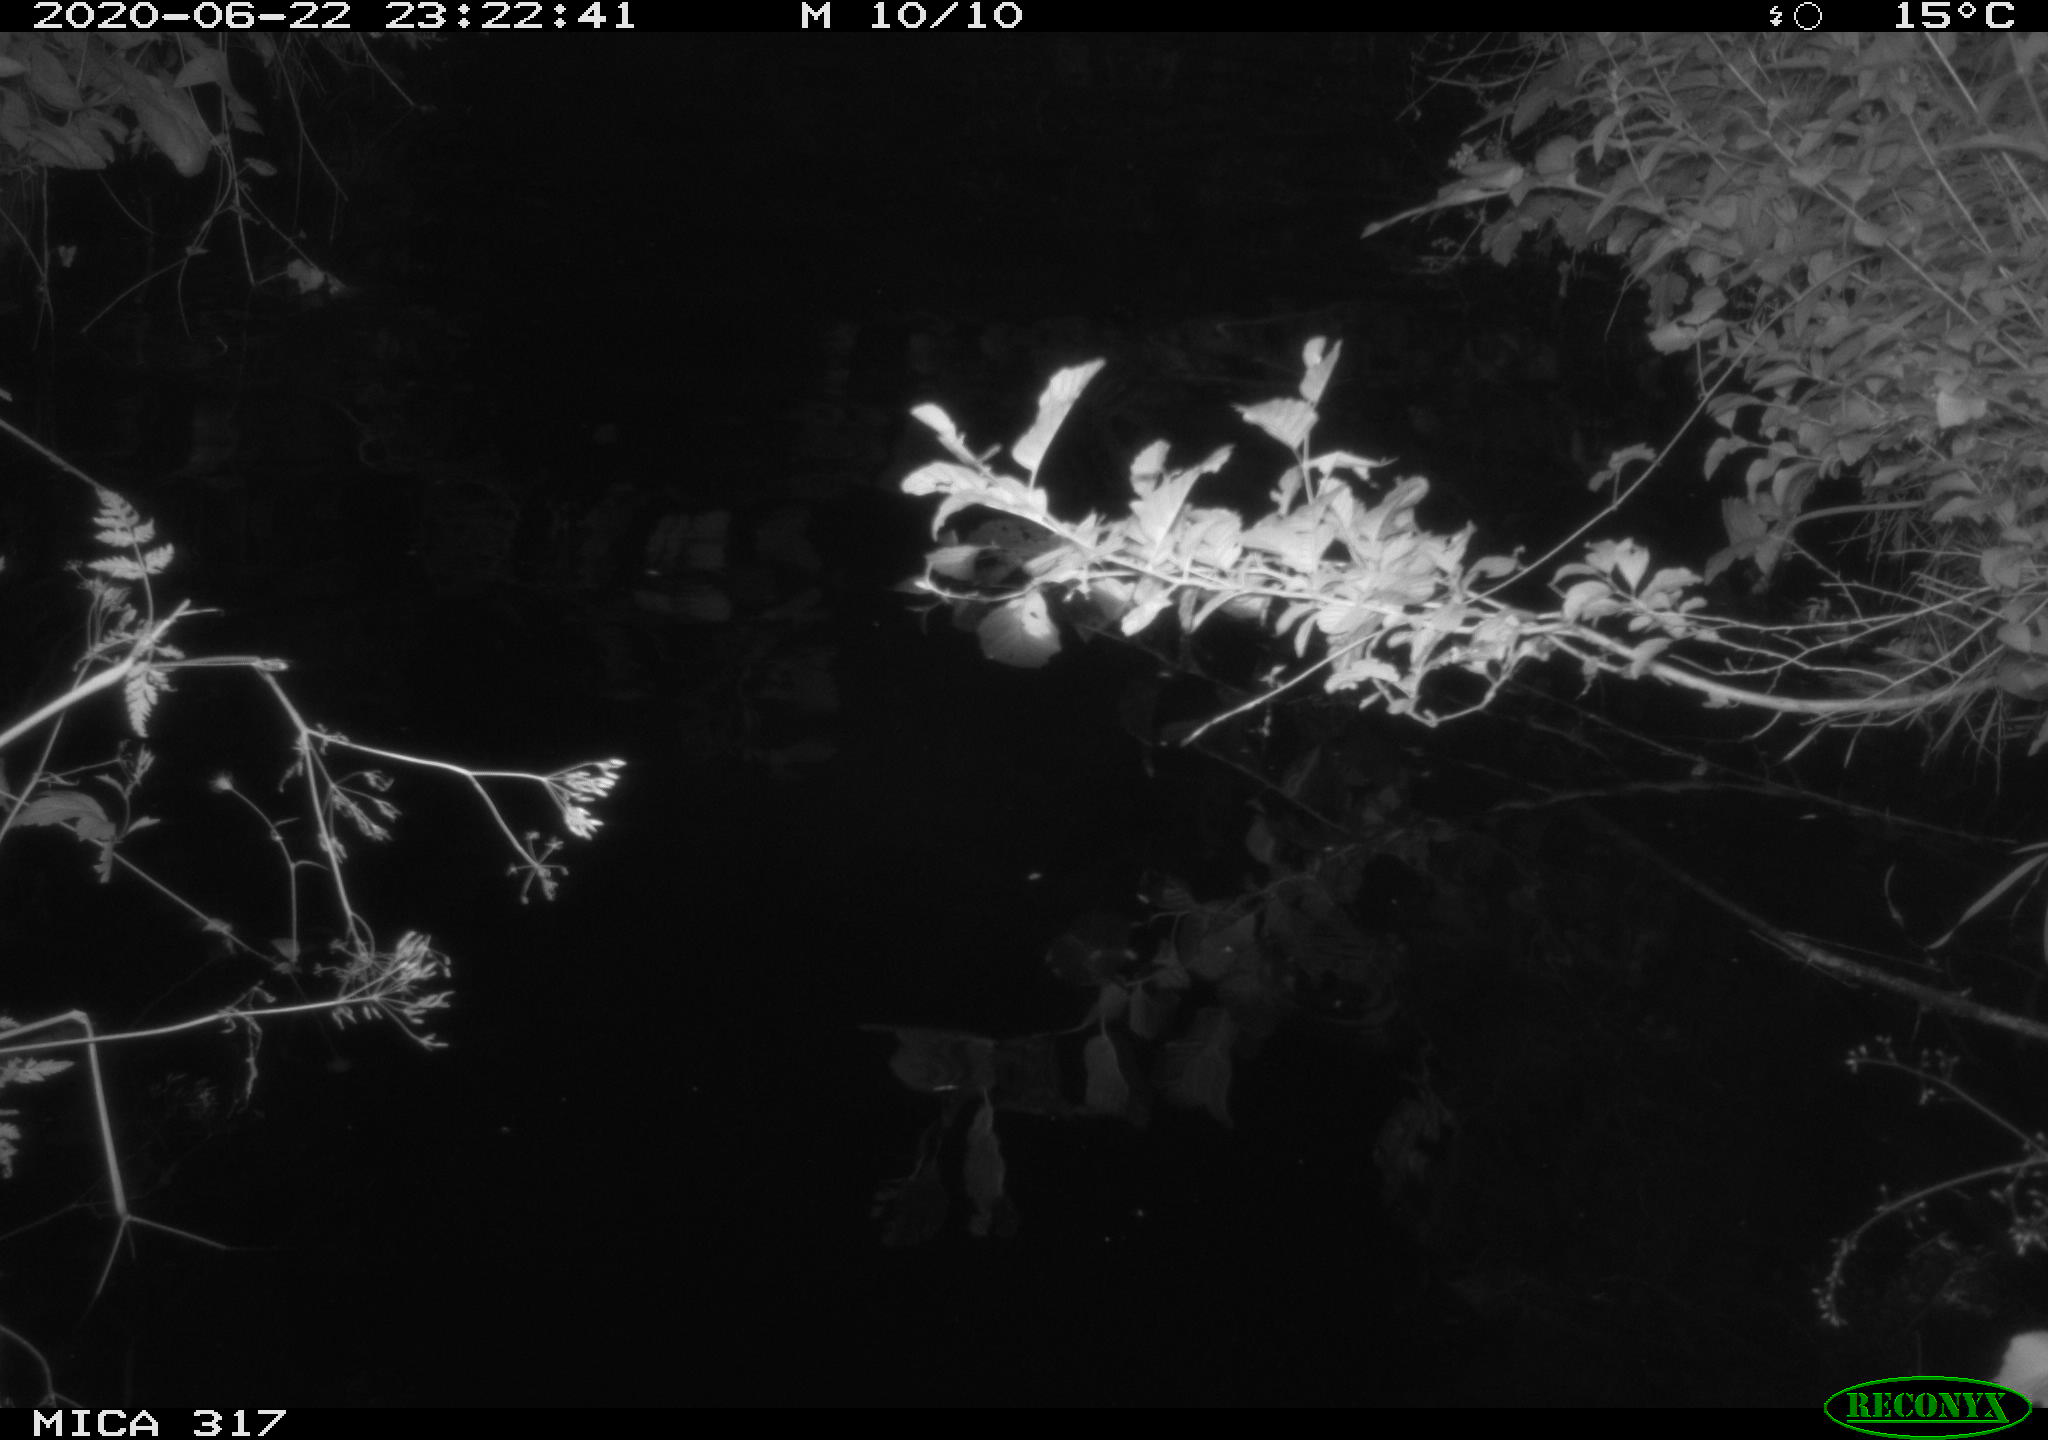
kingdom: Animalia
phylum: Chordata
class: Aves
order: Anseriformes
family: Anatidae
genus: Anas
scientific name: Anas platyrhynchos
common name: Mallard
